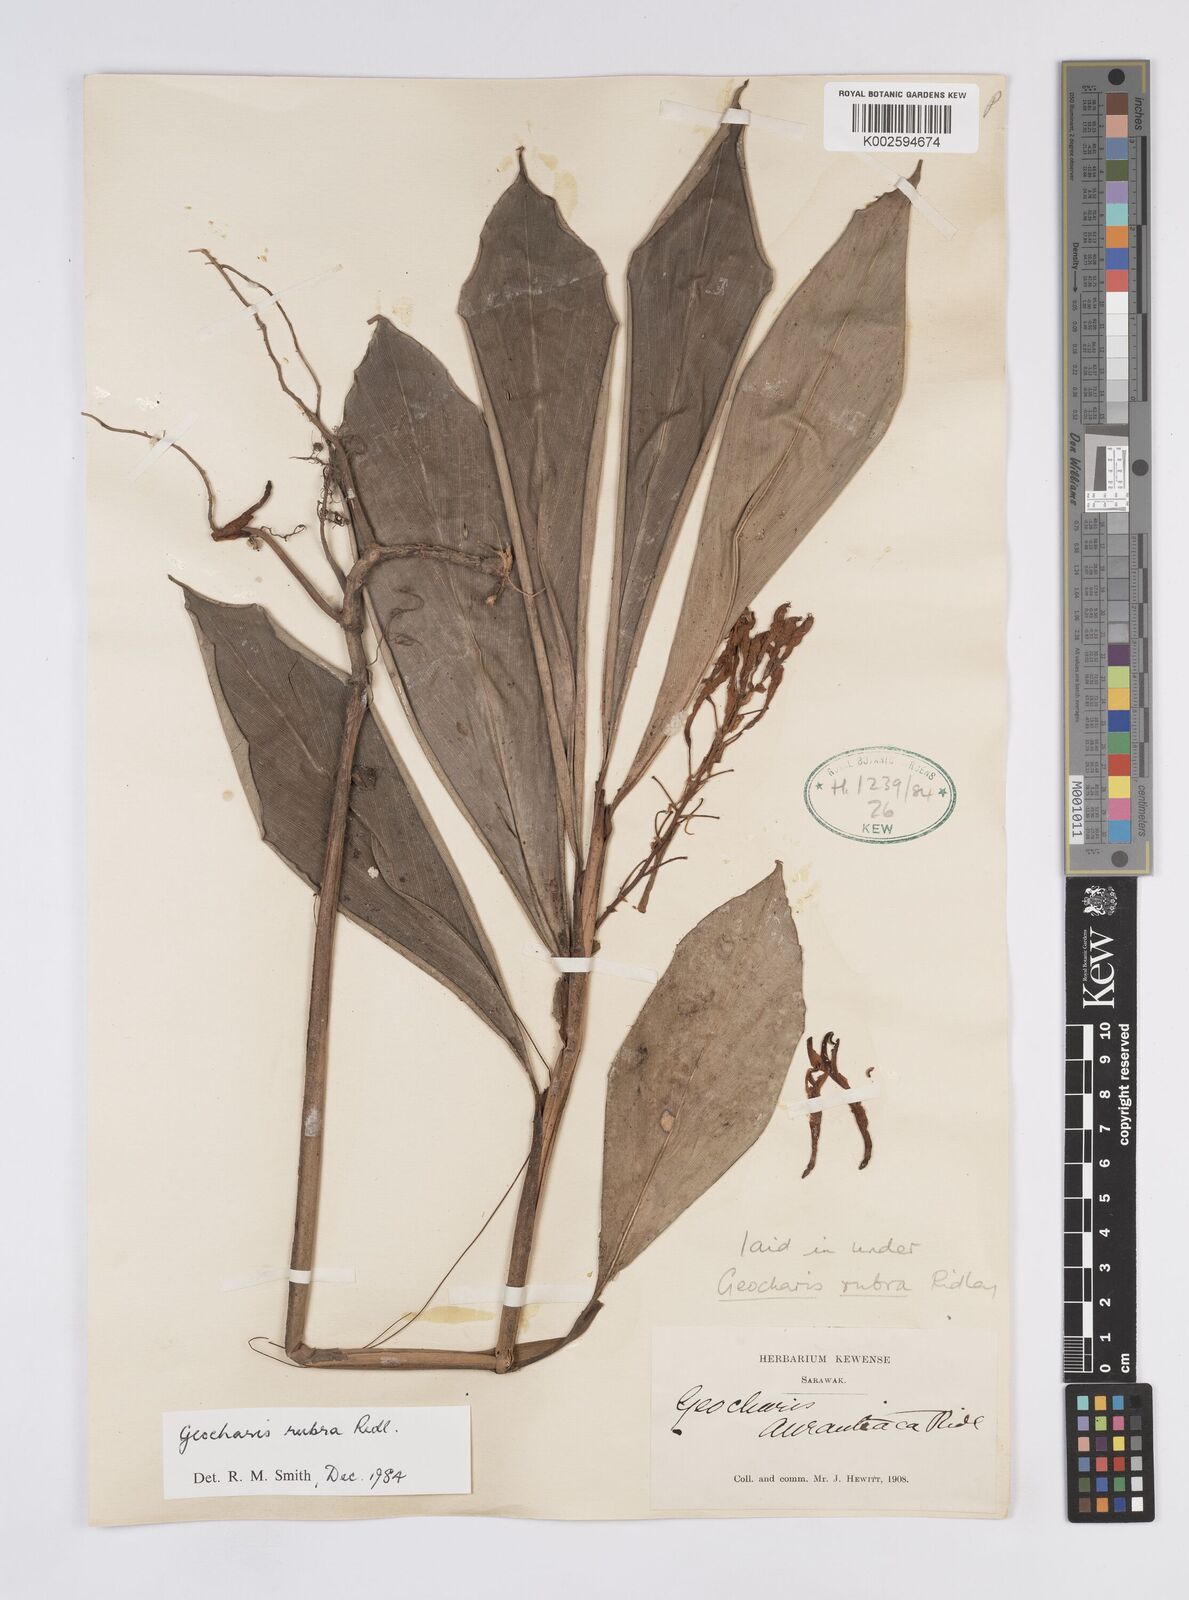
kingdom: Plantae
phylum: Tracheophyta
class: Liliopsida
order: Zingiberales
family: Zingiberaceae
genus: Geocharis
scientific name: Geocharis rubra
